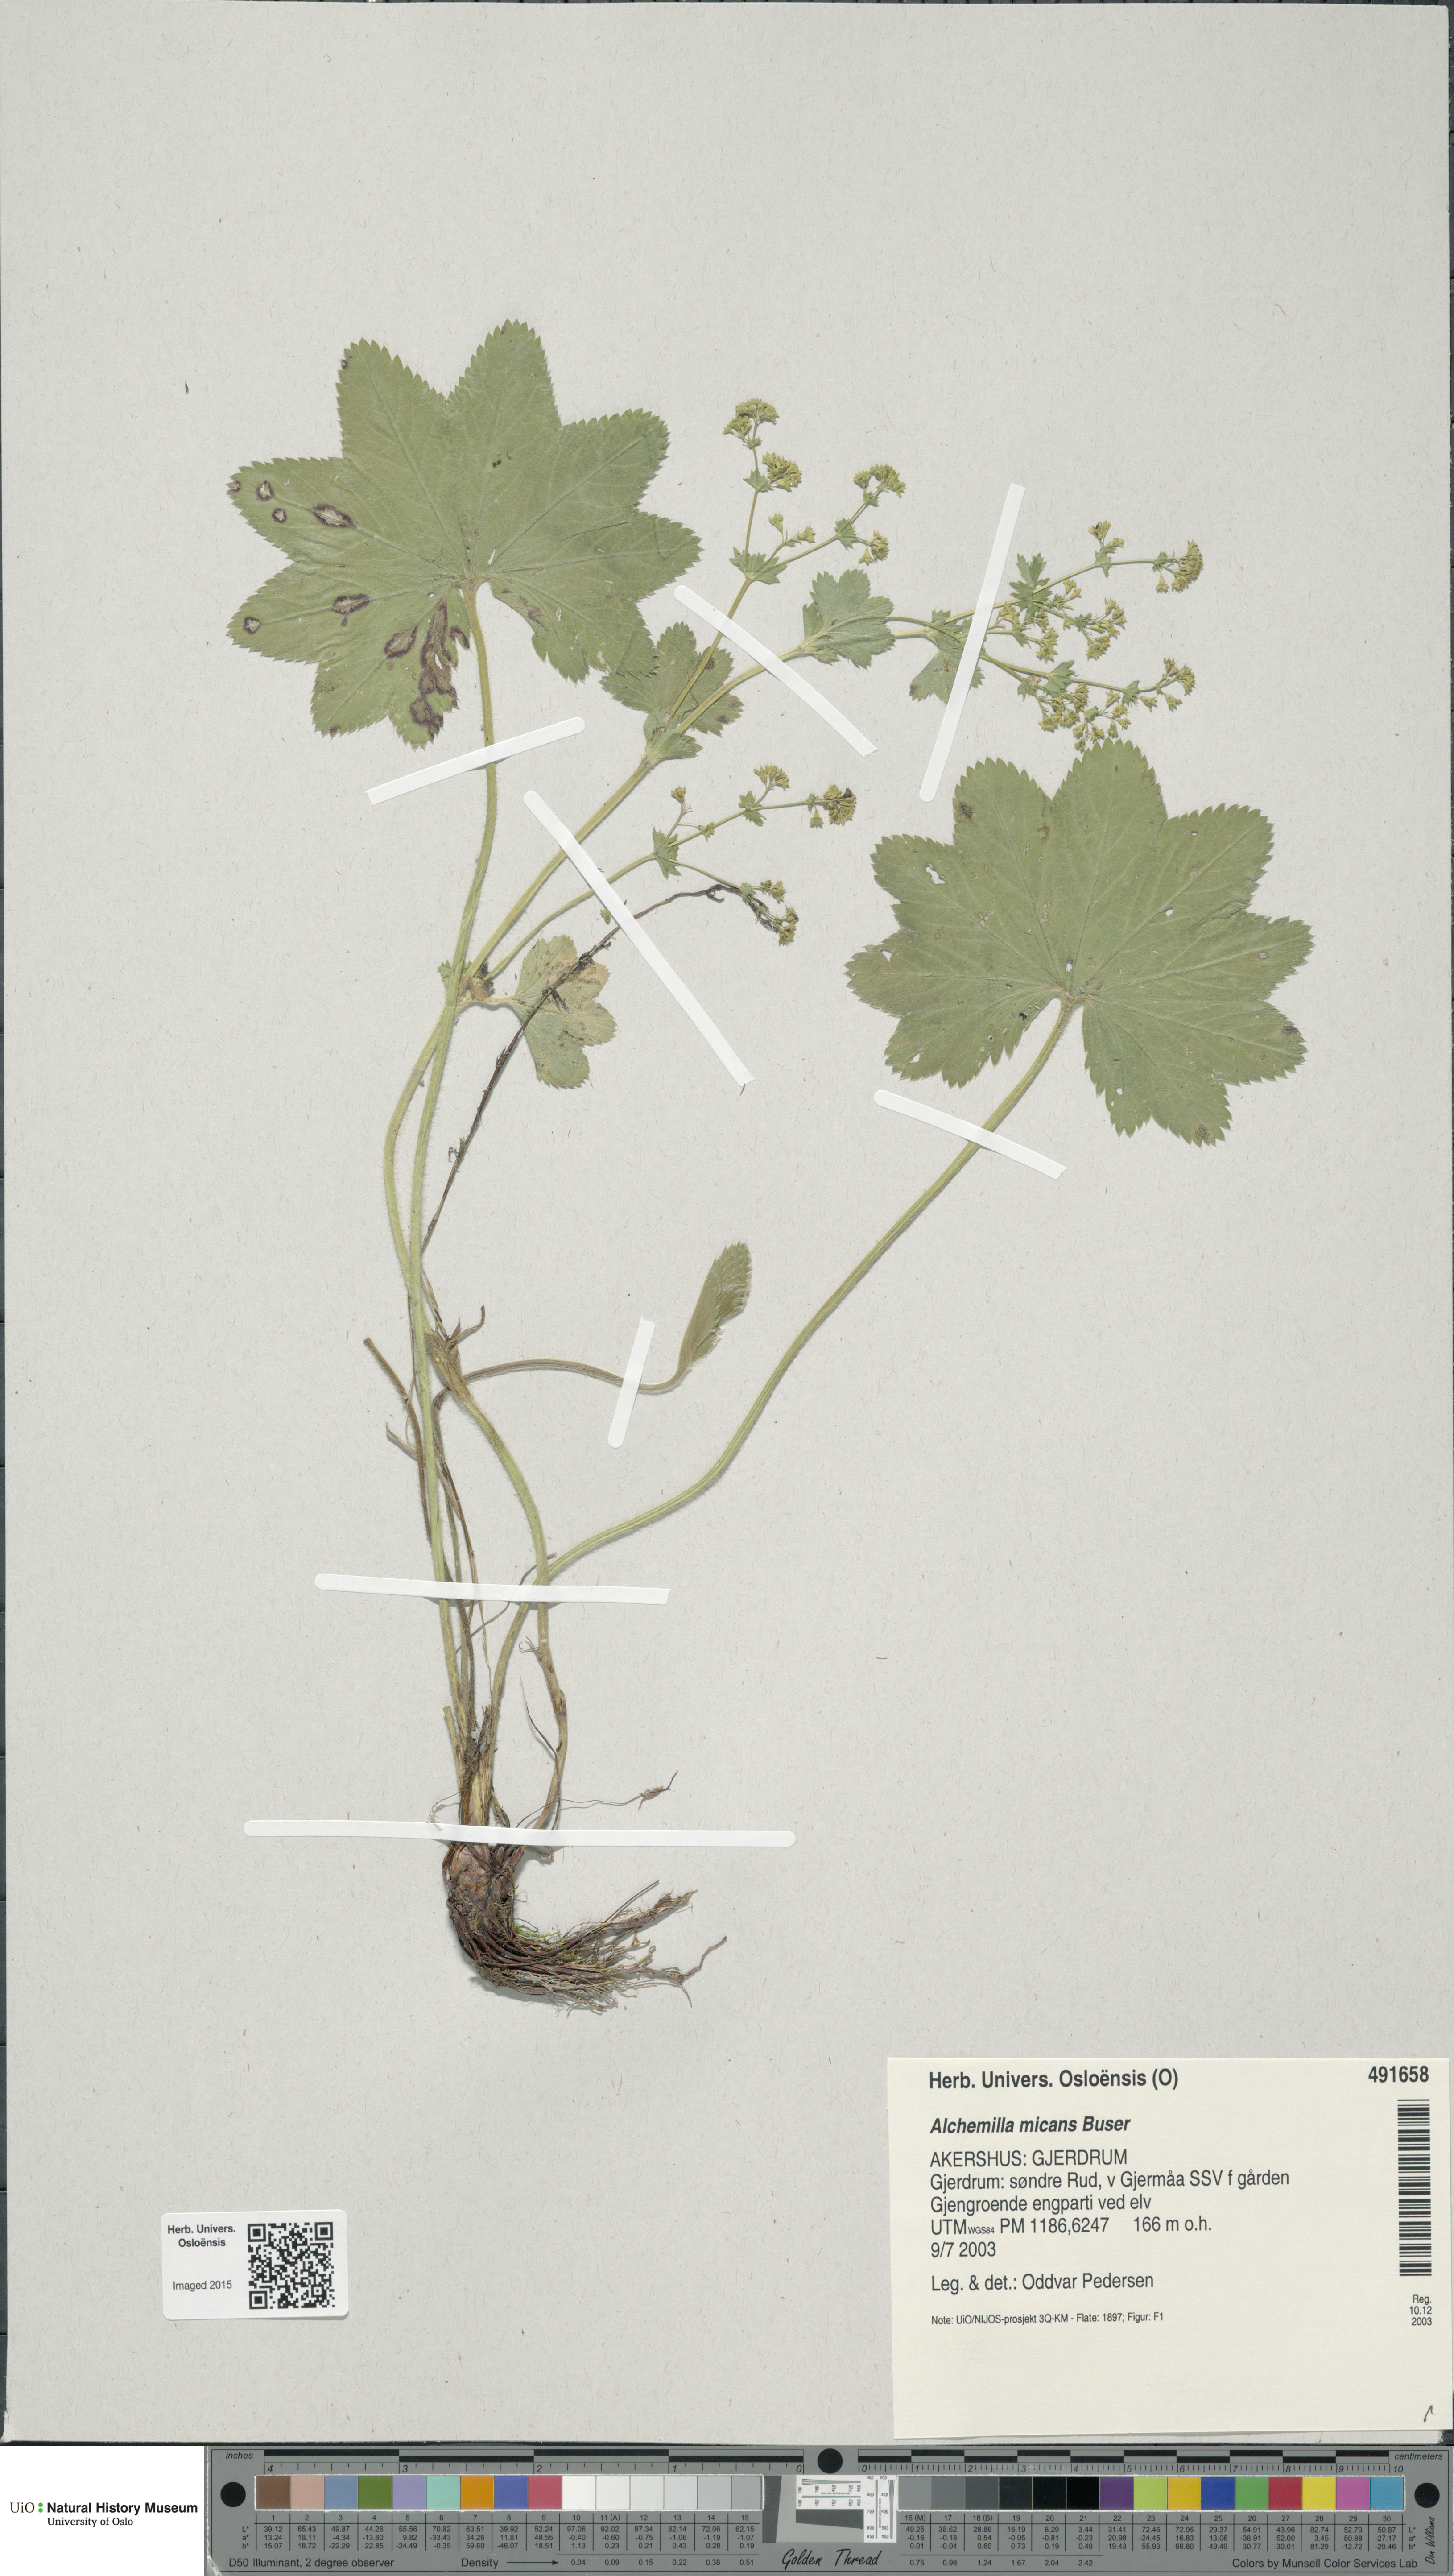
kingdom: Plantae
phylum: Tracheophyta
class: Magnoliopsida
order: Rosales
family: Rosaceae
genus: Alchemilla
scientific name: Alchemilla micans
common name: Gleaming lady's mantle
